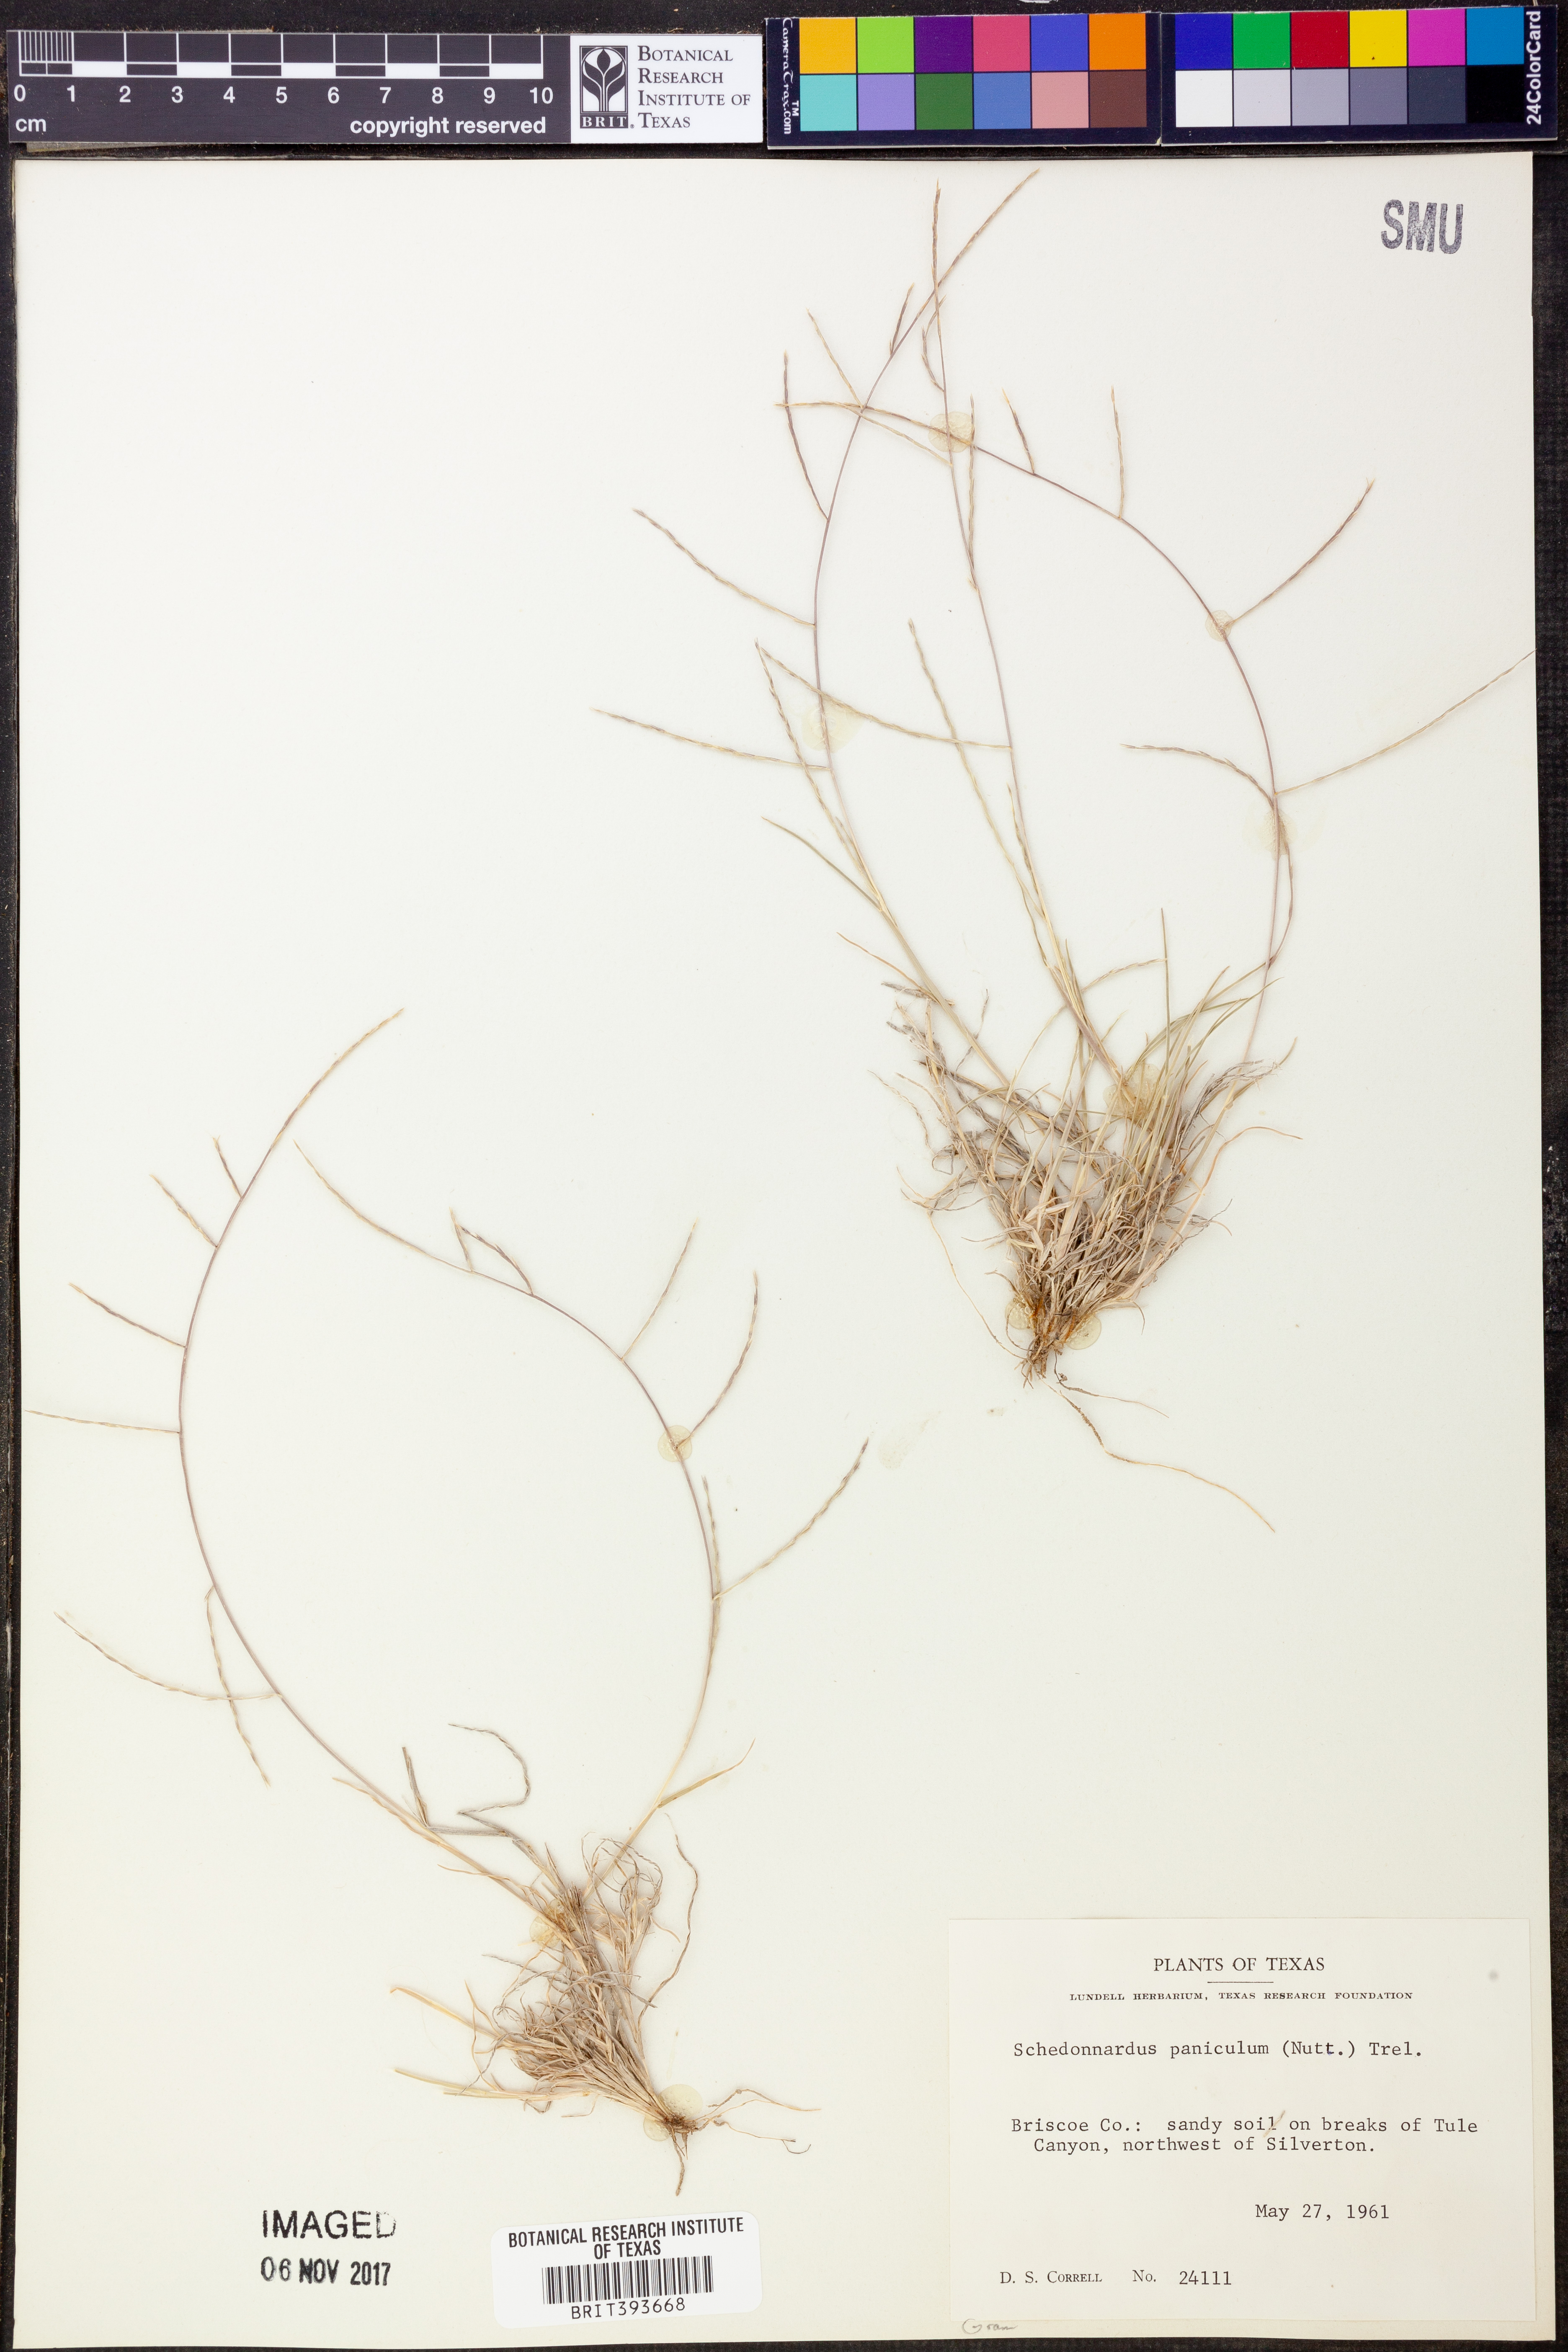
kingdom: Plantae
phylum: Tracheophyta
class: Liliopsida
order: Poales
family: Poaceae
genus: Muhlenbergia
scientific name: Muhlenbergia paniculata
